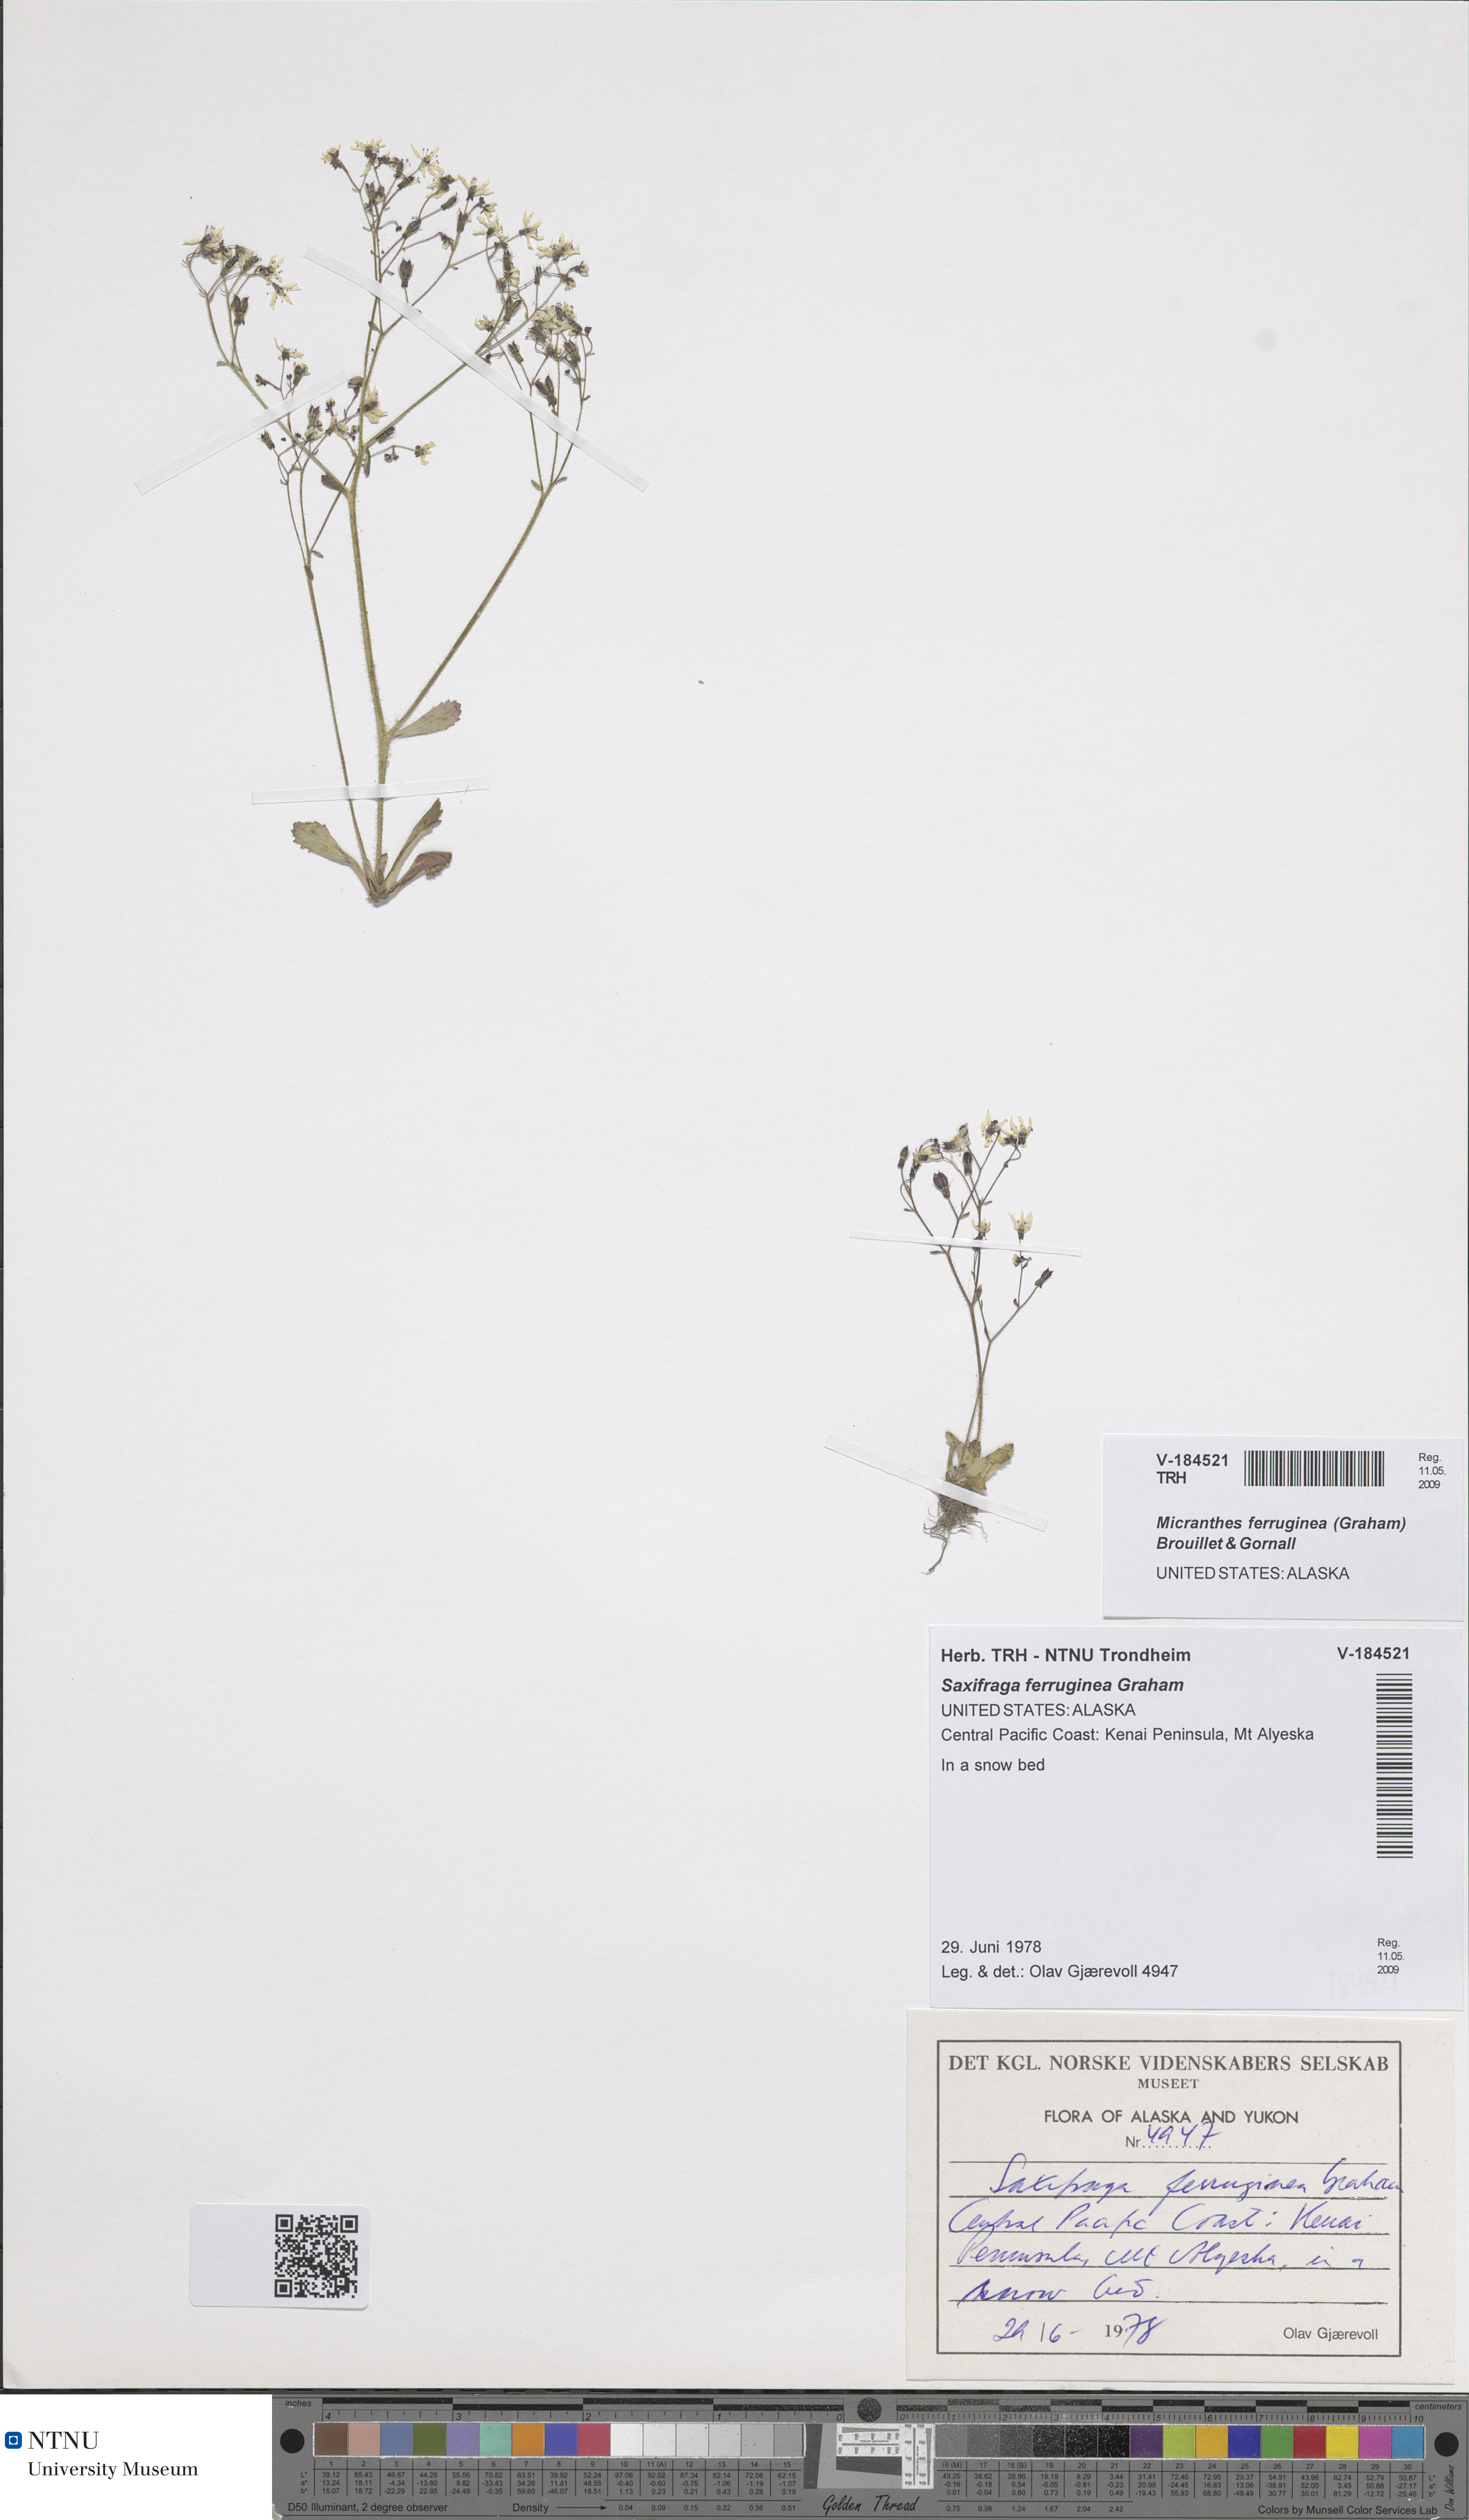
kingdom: Plantae
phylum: Tracheophyta
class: Magnoliopsida
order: Saxifragales
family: Saxifragaceae
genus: Micranthes
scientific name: Micranthes ferruginea
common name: Rusty saxifrage
